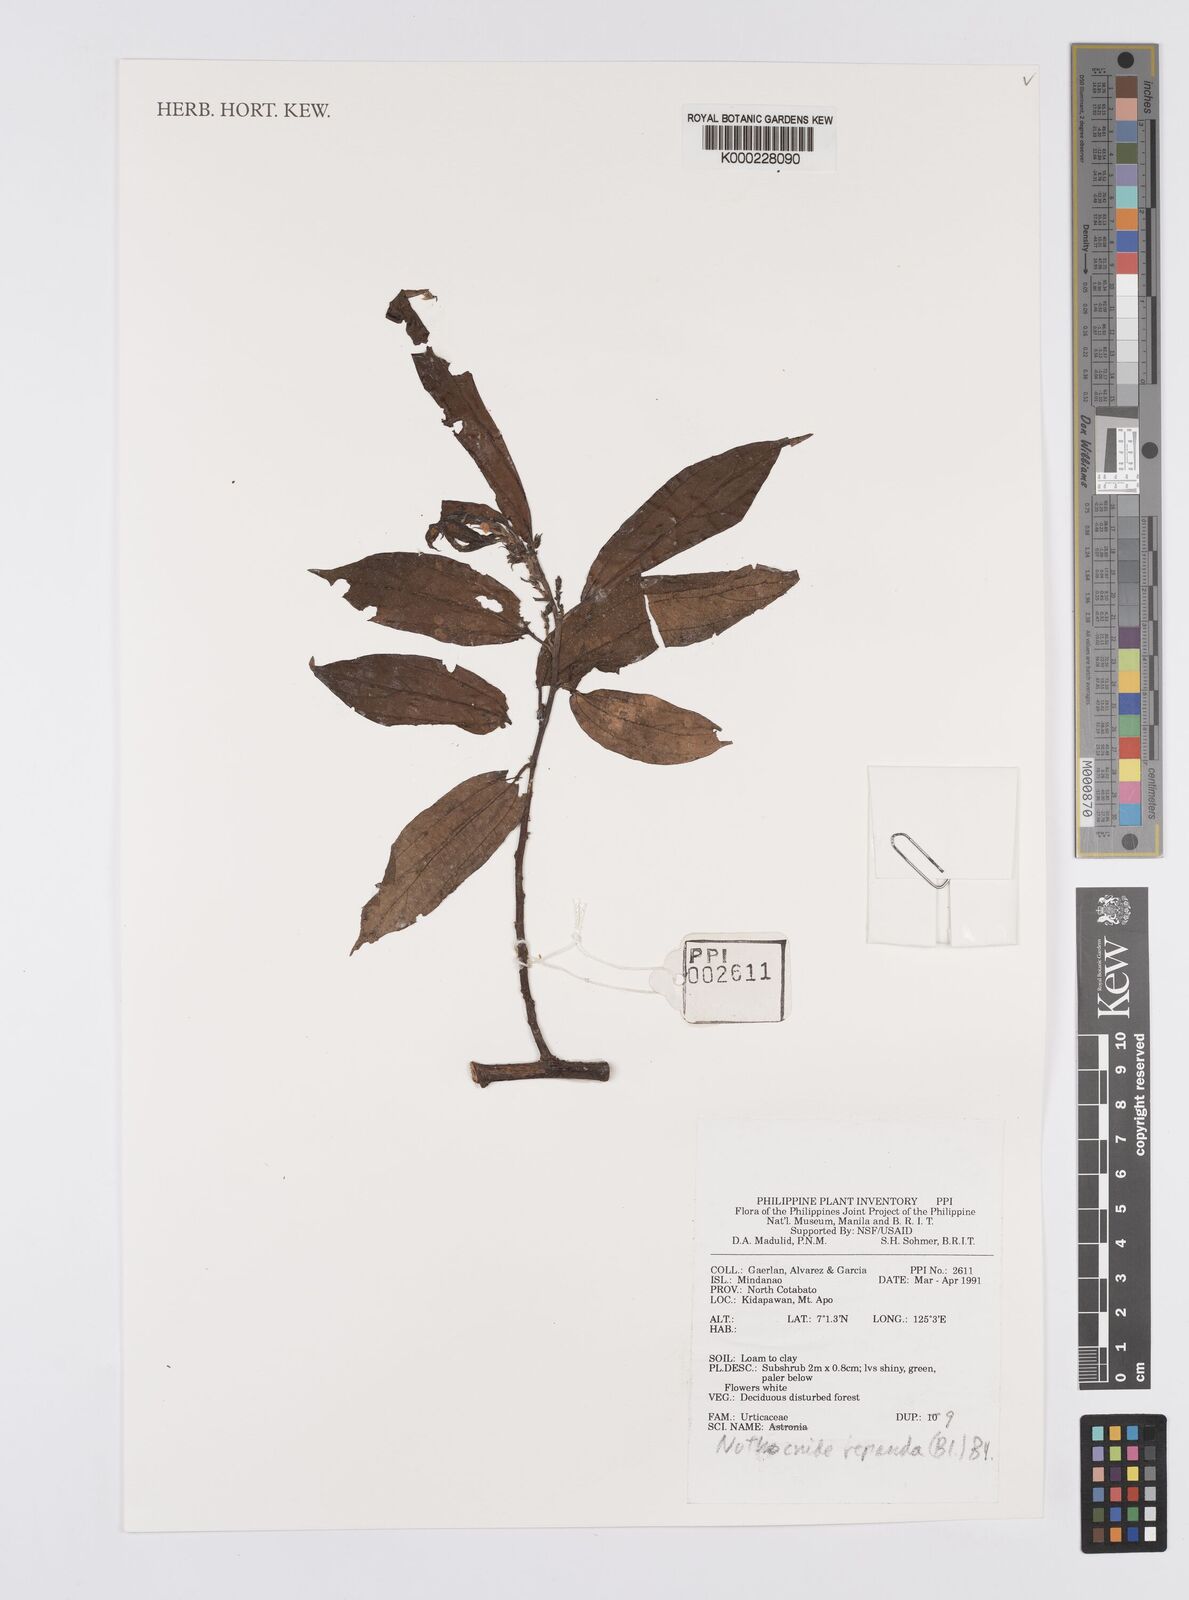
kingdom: Plantae
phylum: Tracheophyta
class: Magnoliopsida
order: Rosales
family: Urticaceae
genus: Nothocnide
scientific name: Nothocnide repanda
